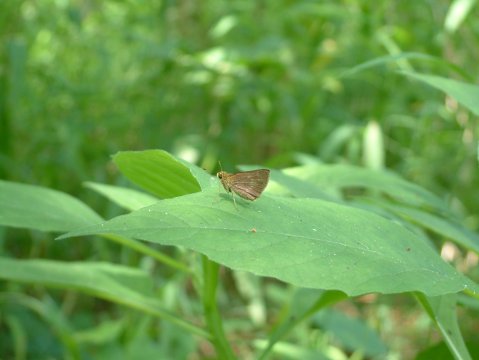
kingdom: Animalia
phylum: Arthropoda
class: Insecta
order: Lepidoptera
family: Hesperiidae
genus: Polites
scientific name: Polites egeremet
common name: Northern Broken-Dash
